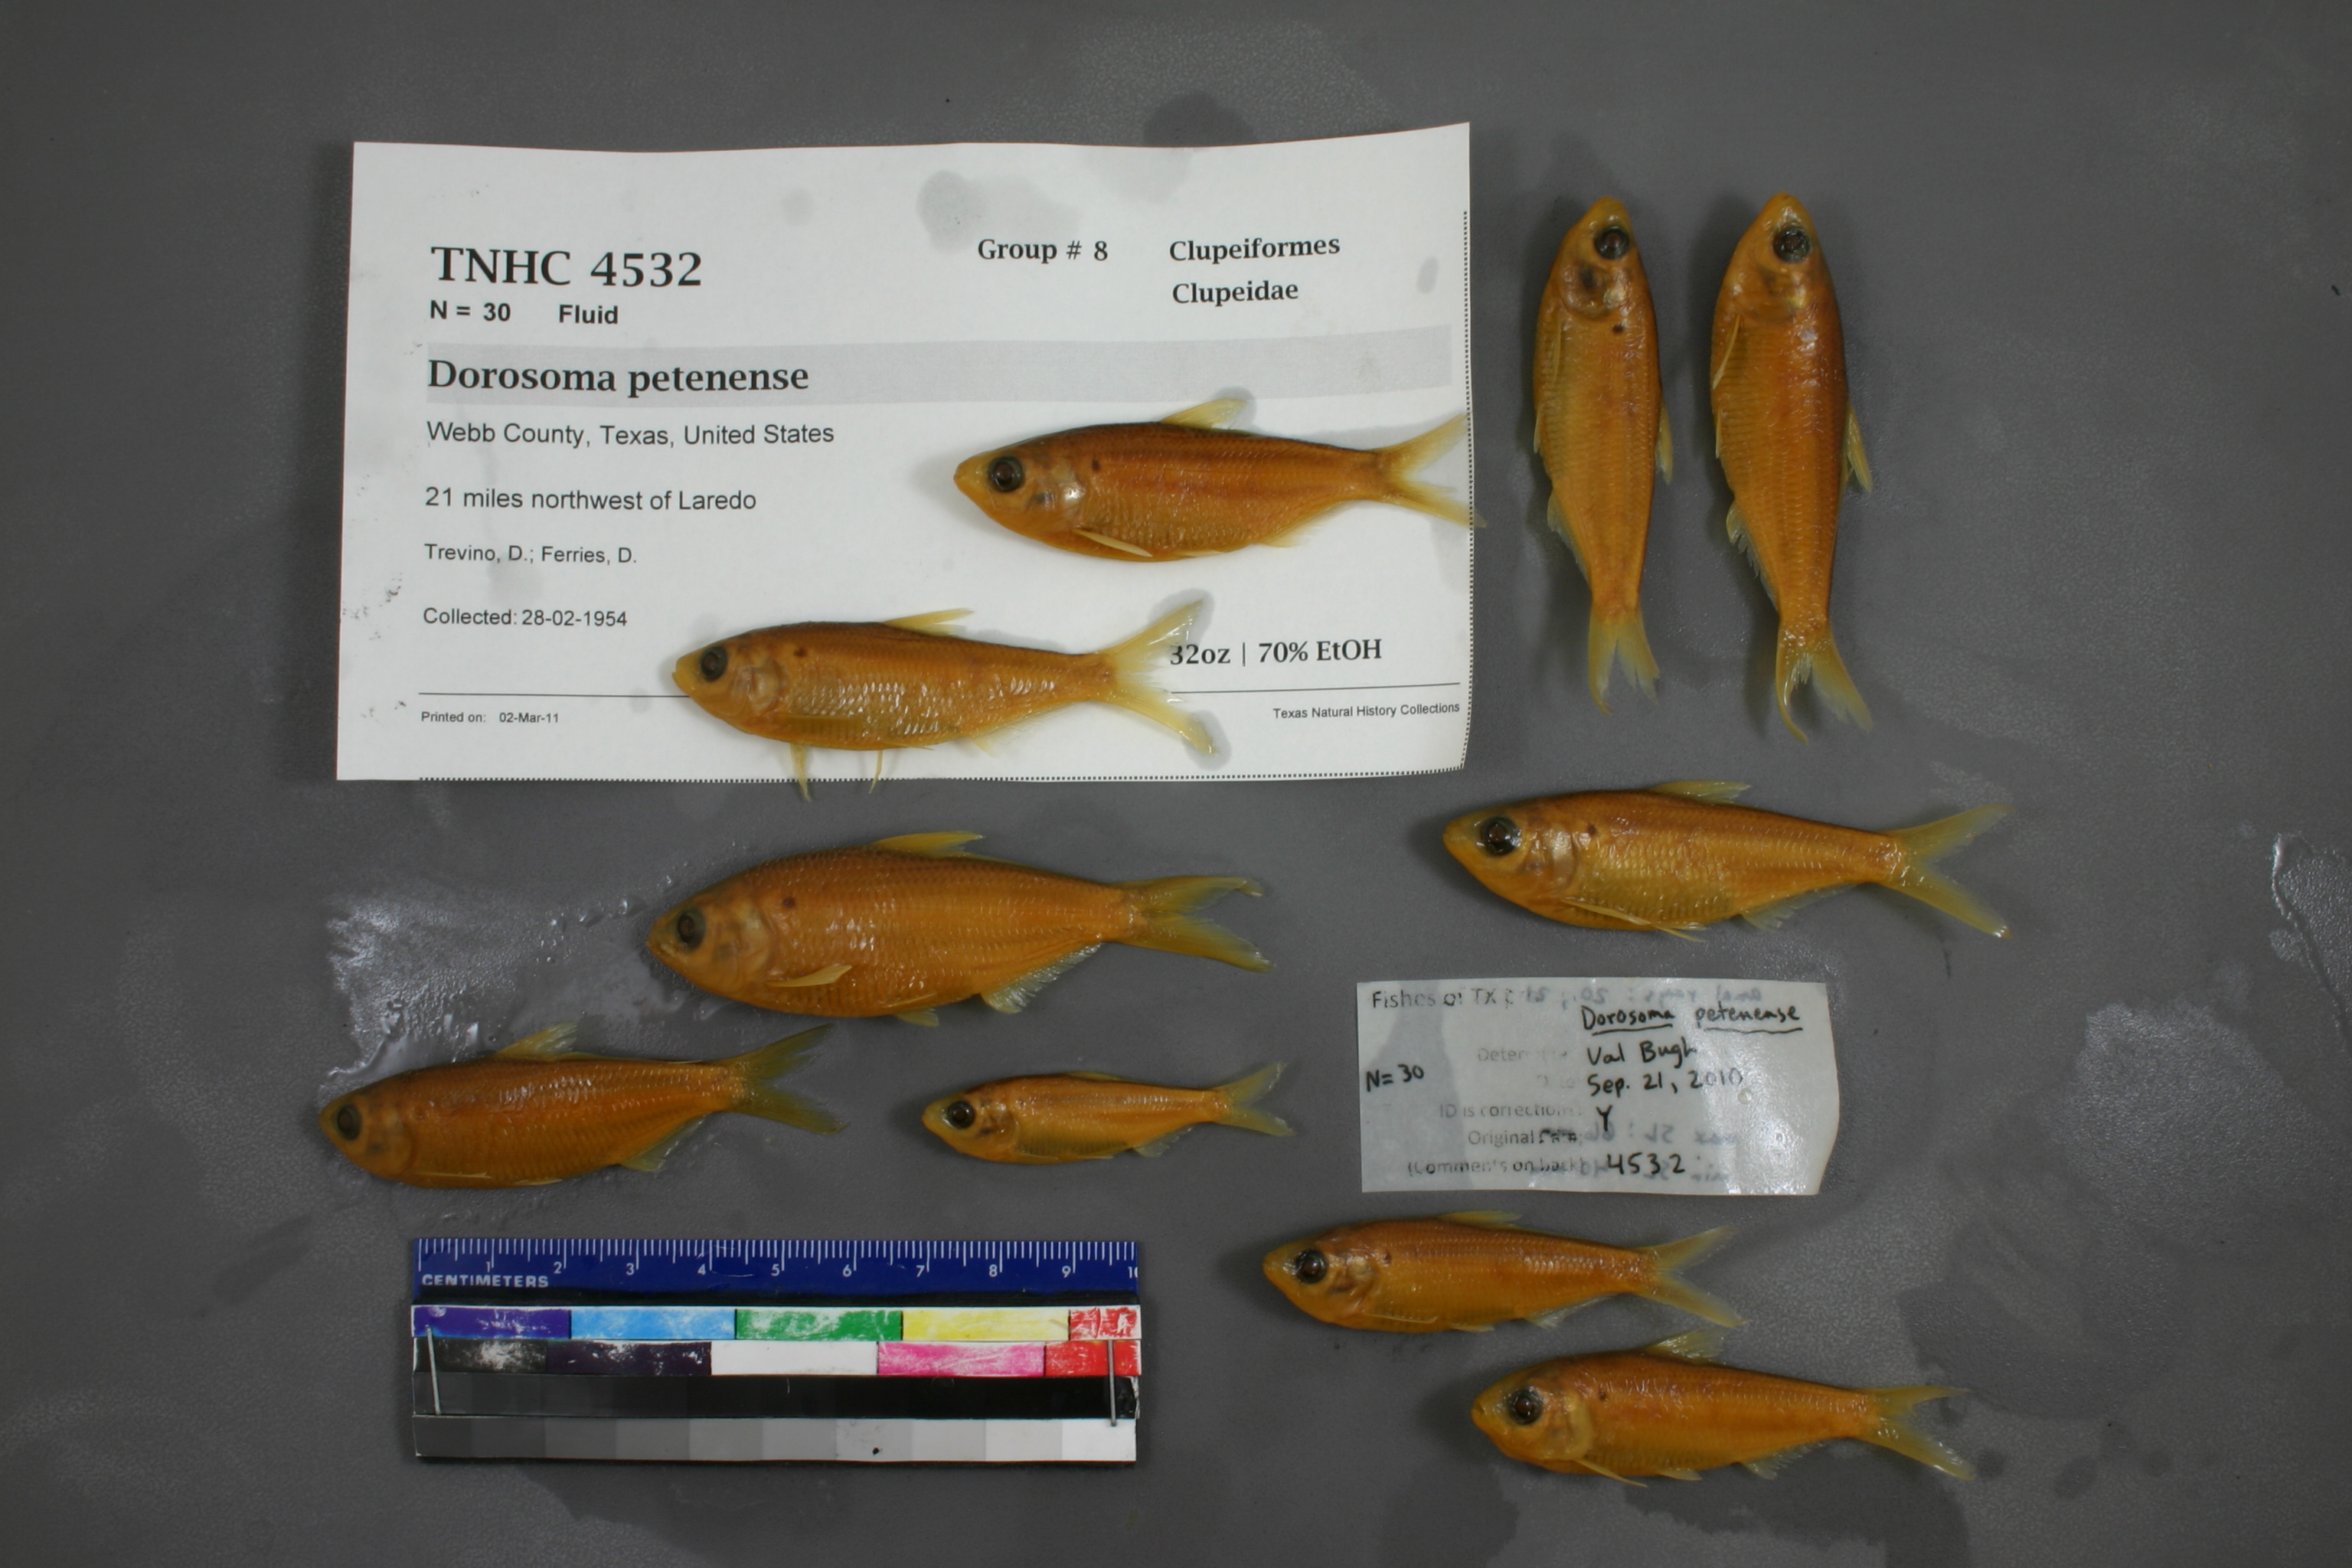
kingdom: Animalia
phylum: Chordata
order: Clupeiformes
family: Clupeidae
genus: Dorosoma
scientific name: Dorosoma petenense
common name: Threadfin shad
